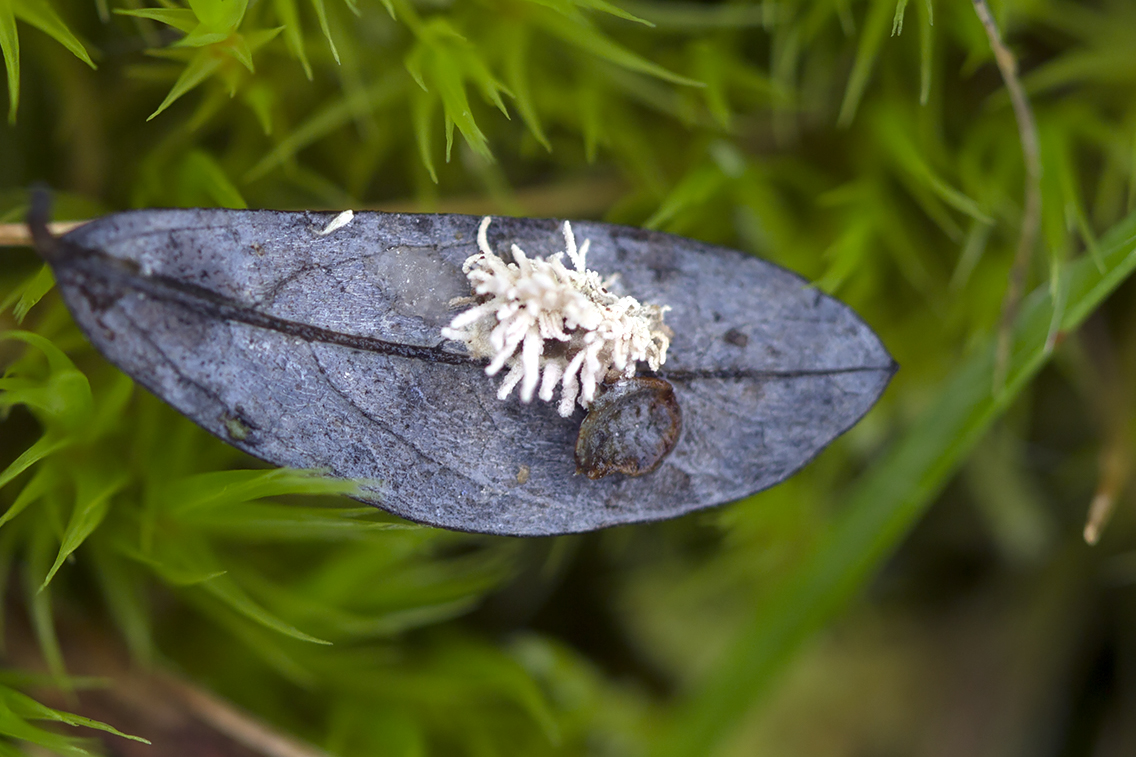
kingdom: Fungi
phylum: Ascomycota
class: Sordariomycetes
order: Hypocreales
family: Cordycipitaceae
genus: Gibellula
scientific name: Gibellula
